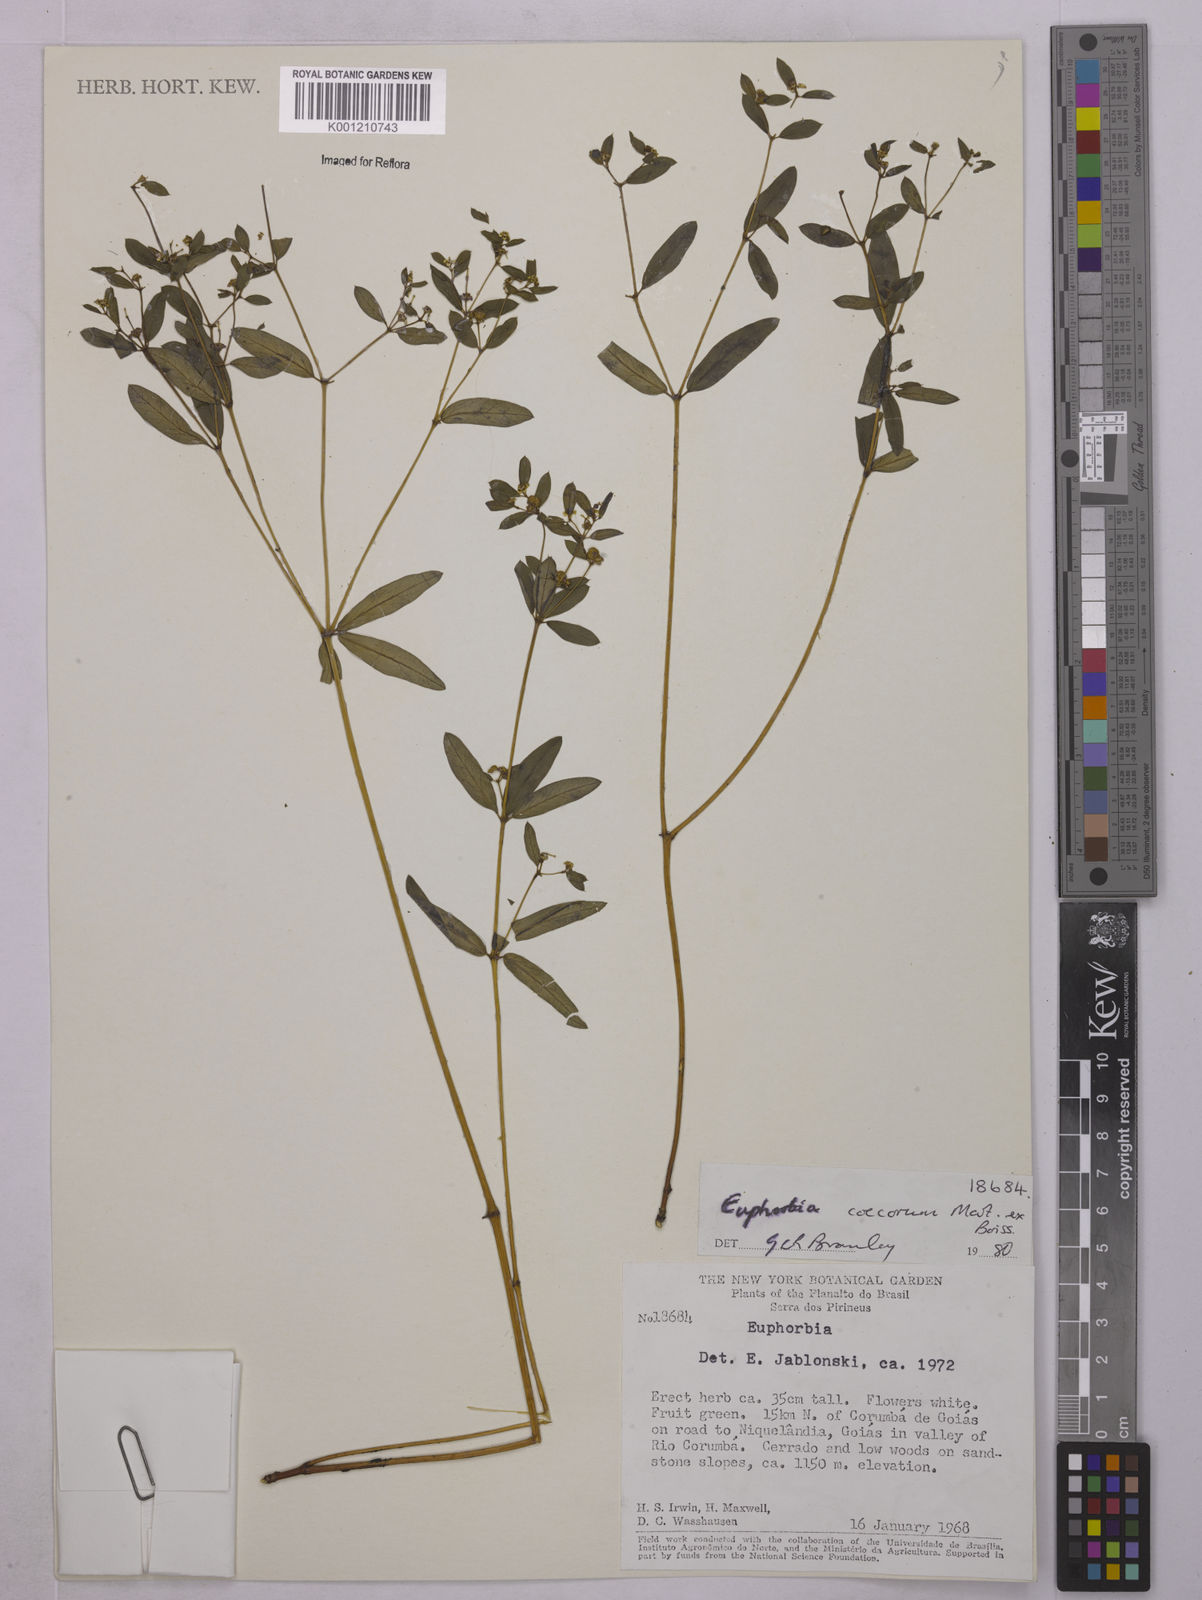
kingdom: Plantae
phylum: Tracheophyta
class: Magnoliopsida
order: Malpighiales
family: Euphorbiaceae
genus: Euphorbia
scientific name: Euphorbia potentilloides
